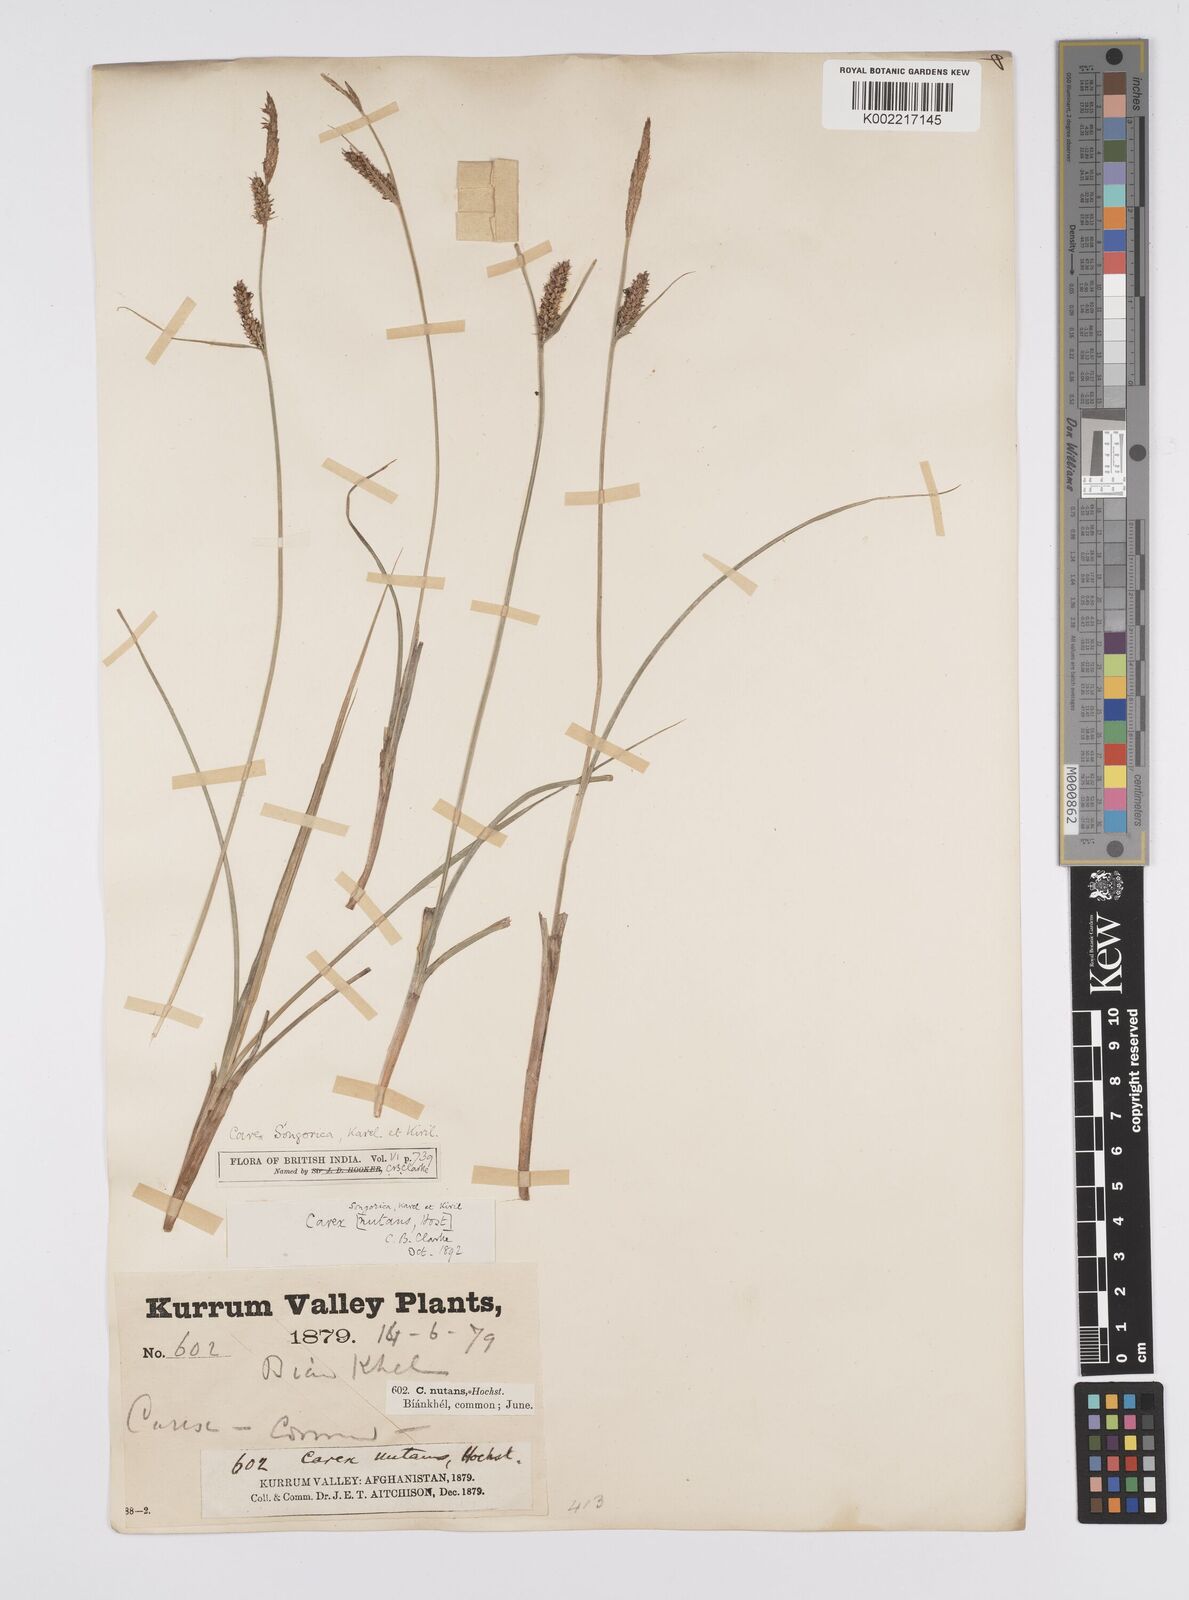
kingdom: Plantae
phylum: Tracheophyta
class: Liliopsida
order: Poales
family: Cyperaceae
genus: Carex
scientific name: Carex heterostachya
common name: Different-spike sedge
